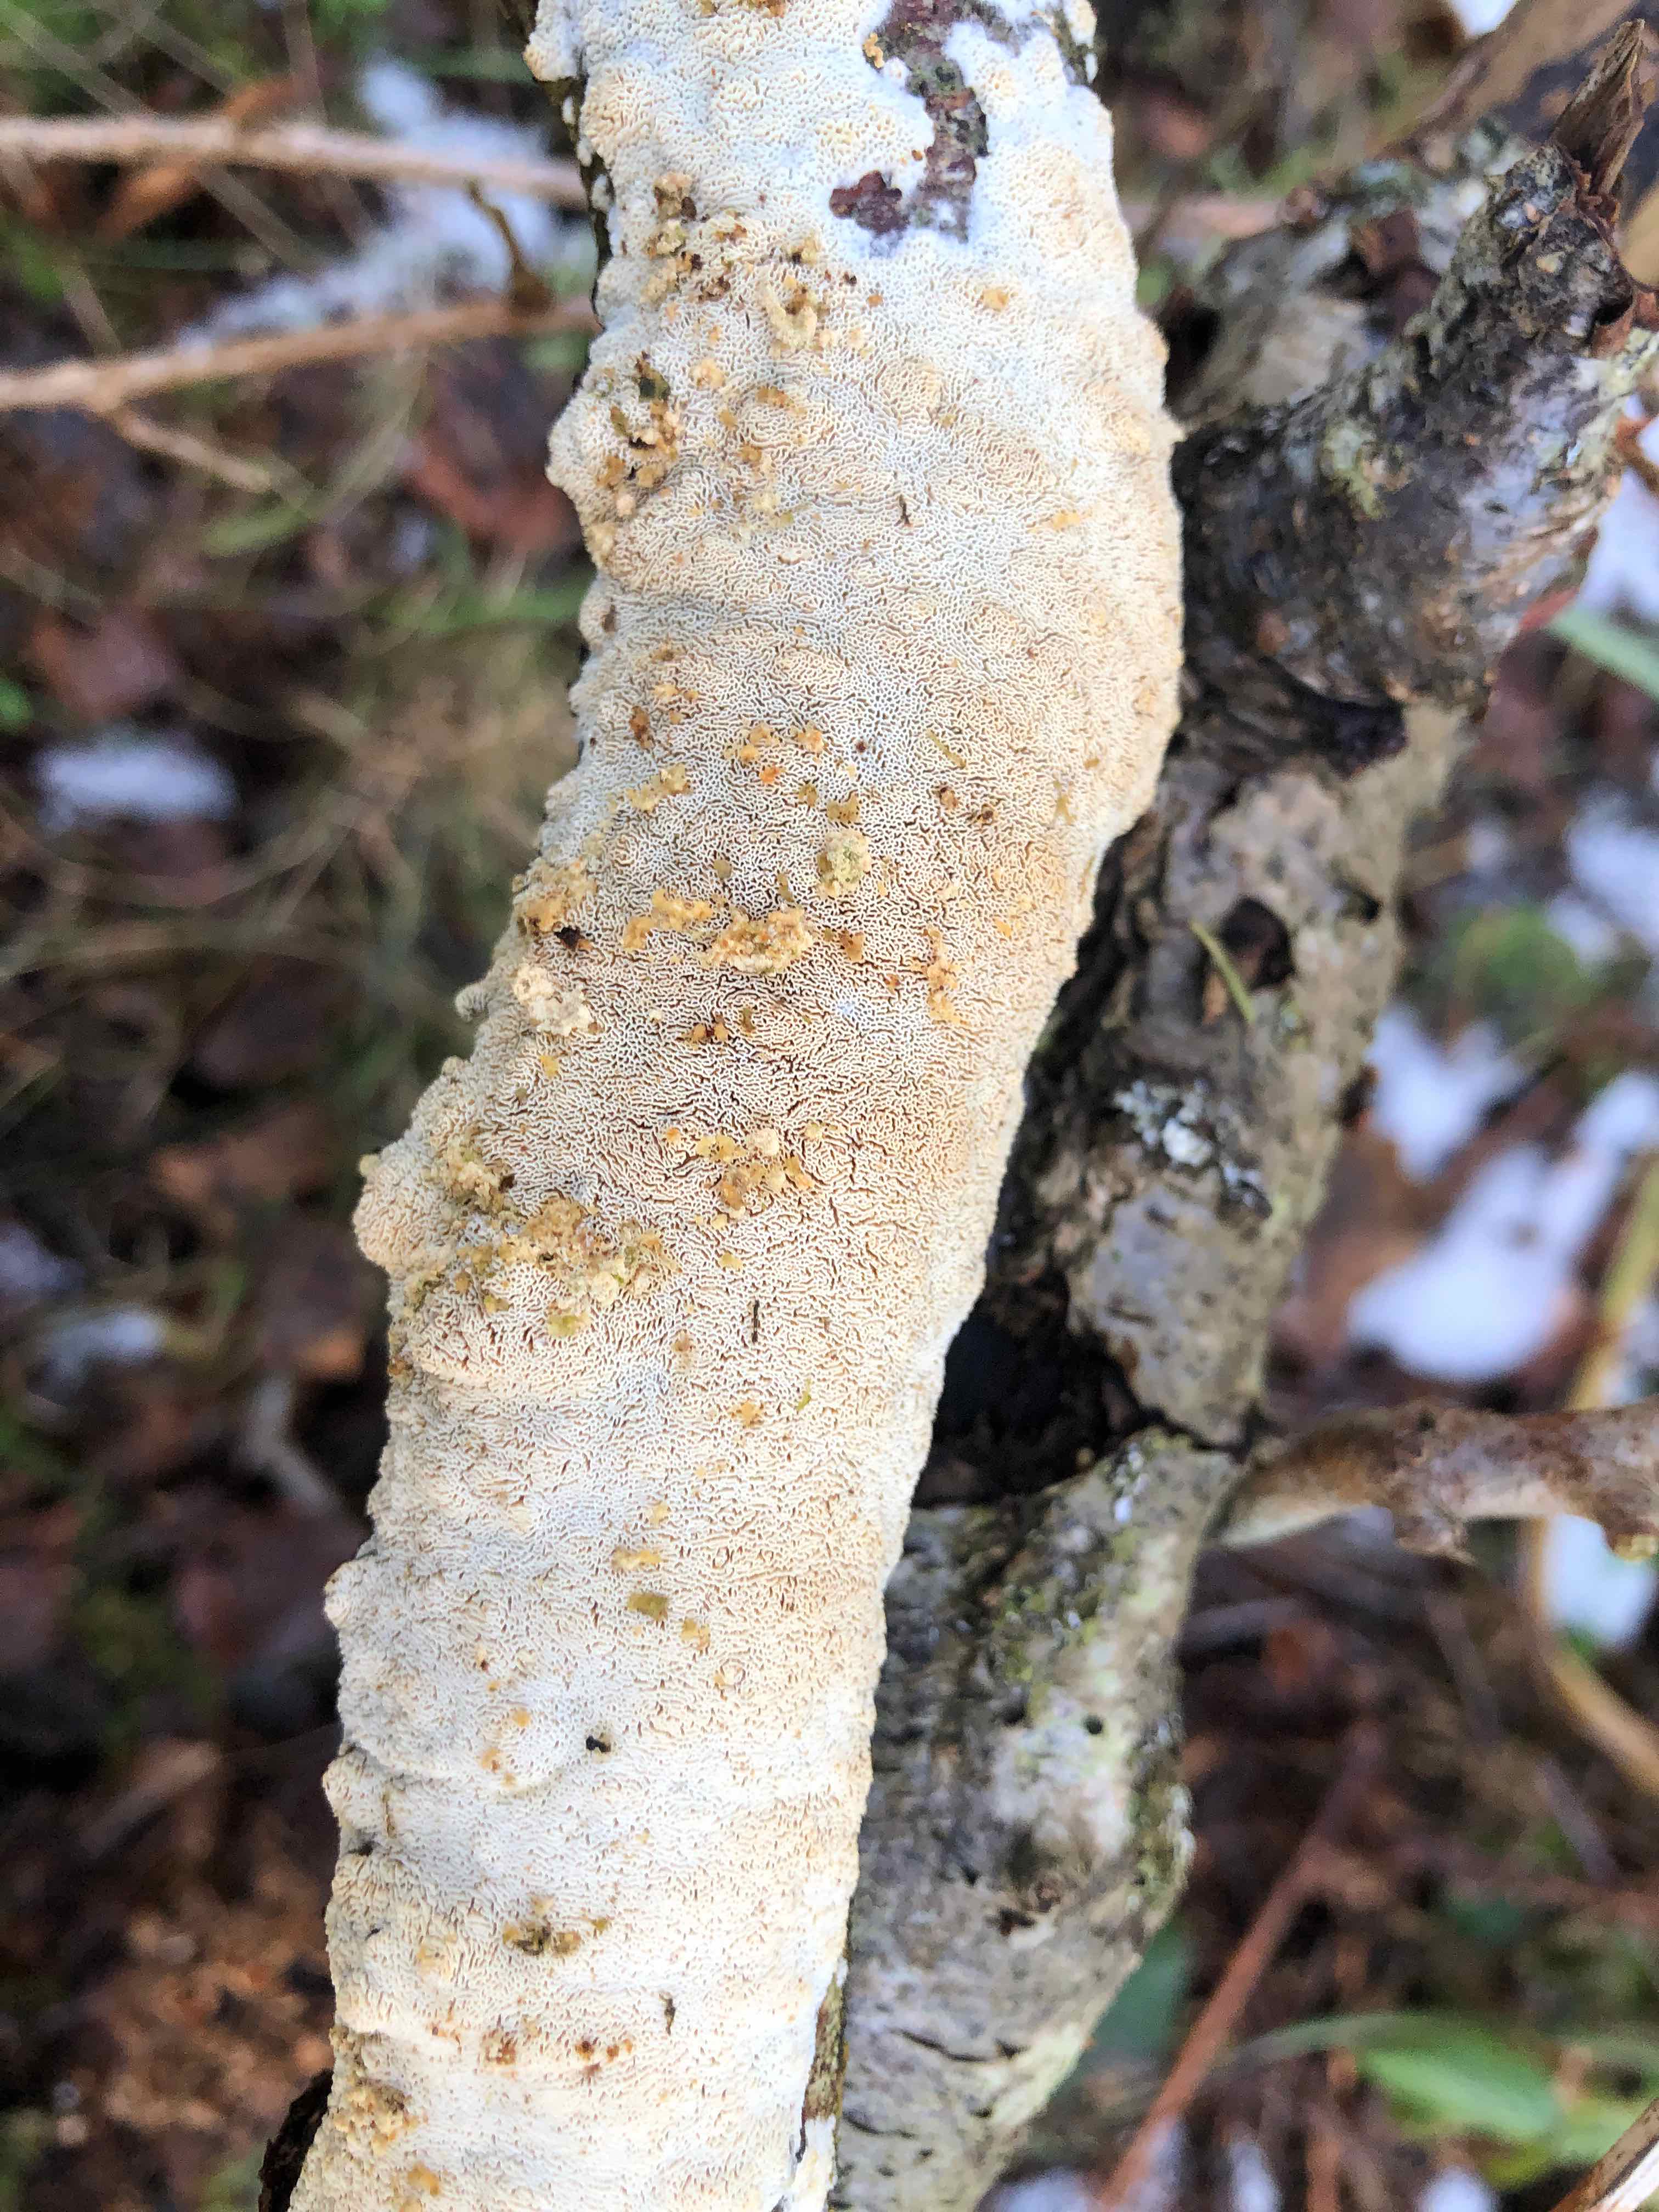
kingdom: Fungi
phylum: Basidiomycota
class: Agaricomycetes
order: Hymenochaetales
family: Schizoporaceae
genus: Xylodon
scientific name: Xylodon subtropicus
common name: labyrint-tandsvamp
